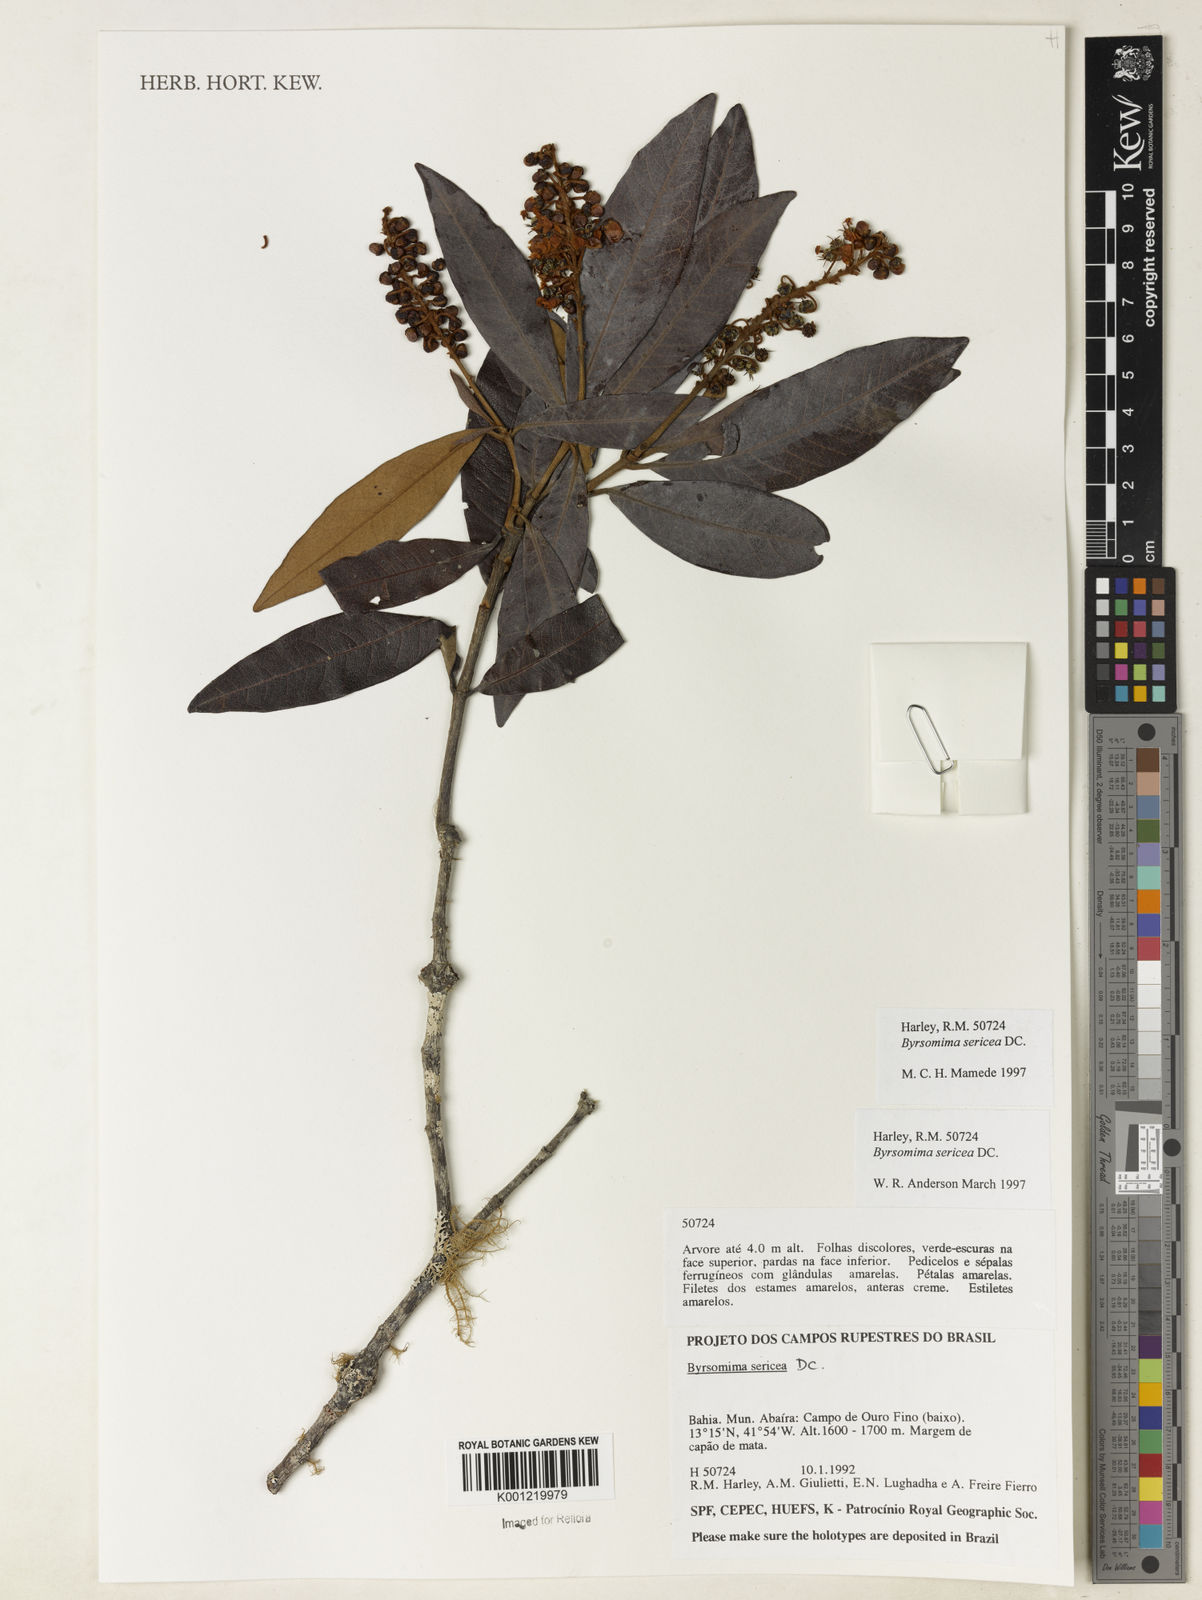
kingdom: Plantae
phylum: Tracheophyta
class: Magnoliopsida
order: Malpighiales
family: Malpighiaceae
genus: Byrsonima
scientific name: Byrsonima sericea
